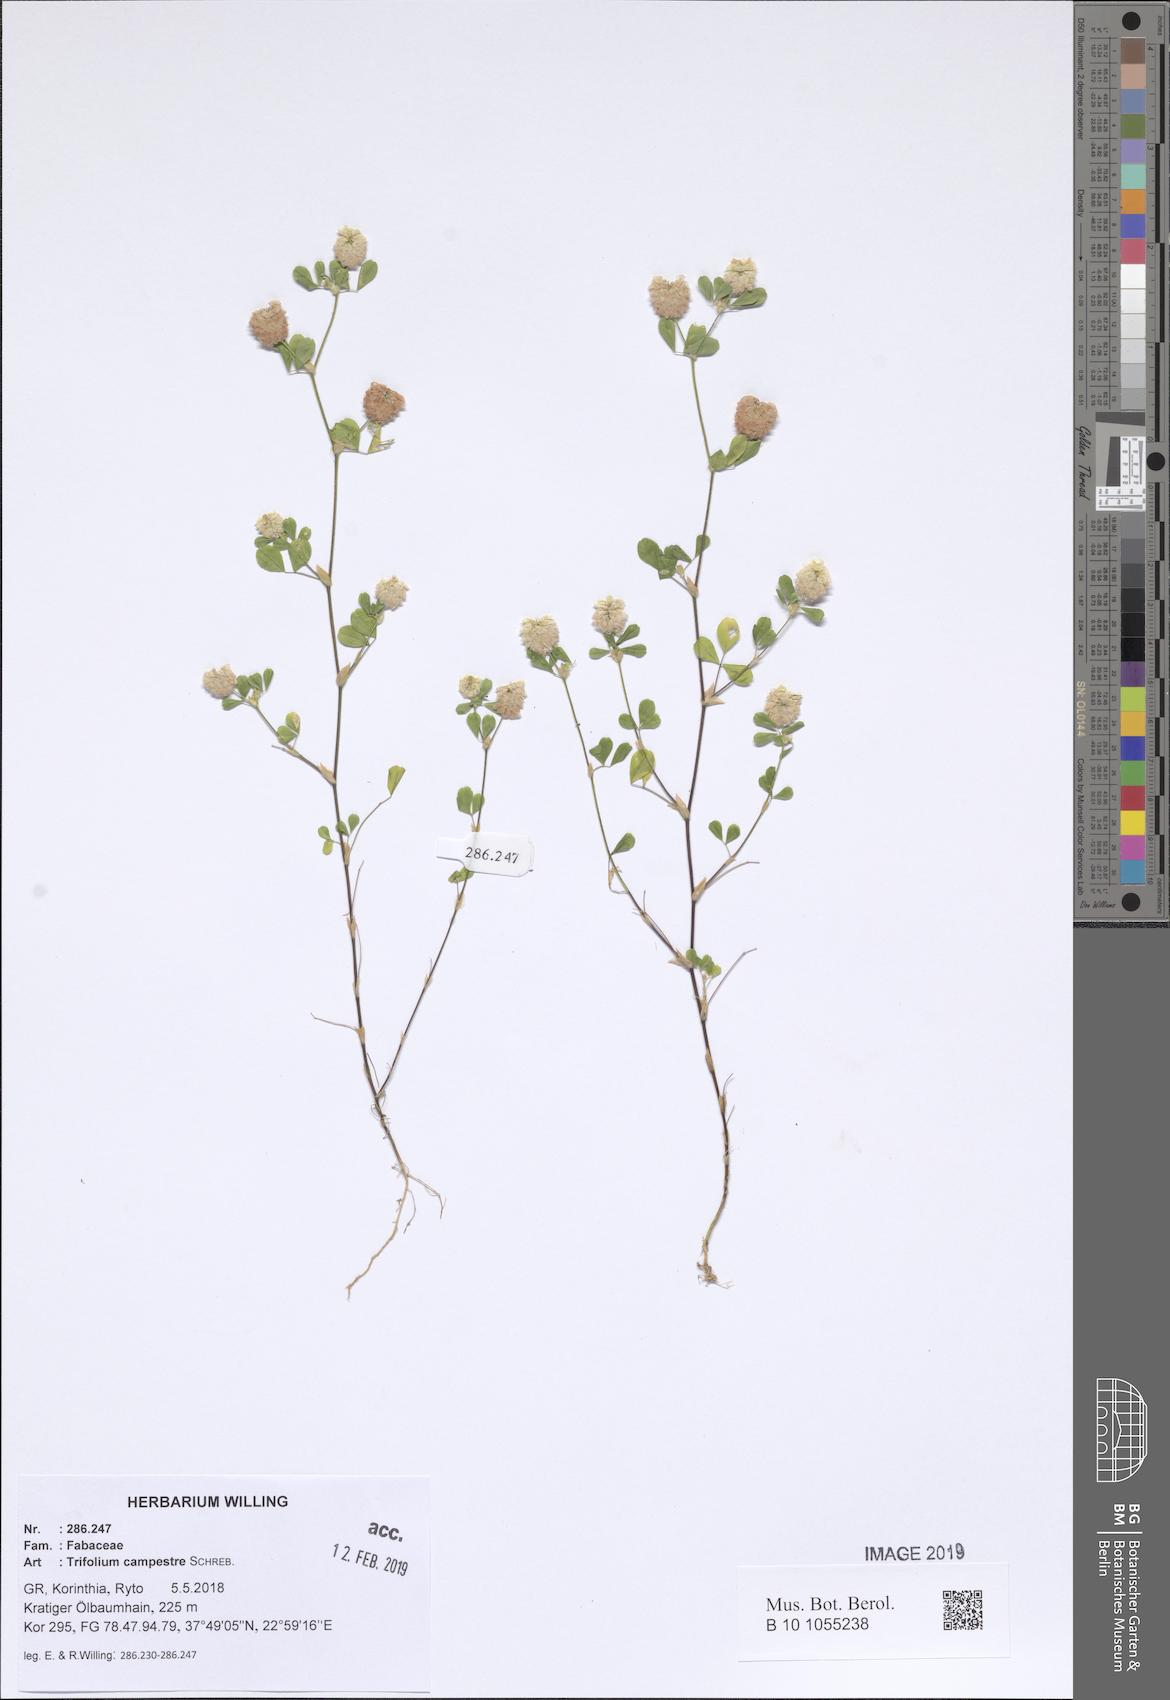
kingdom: Plantae
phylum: Tracheophyta
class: Magnoliopsida
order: Fabales
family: Fabaceae
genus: Trifolium
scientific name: Trifolium campestre
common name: Field clover
